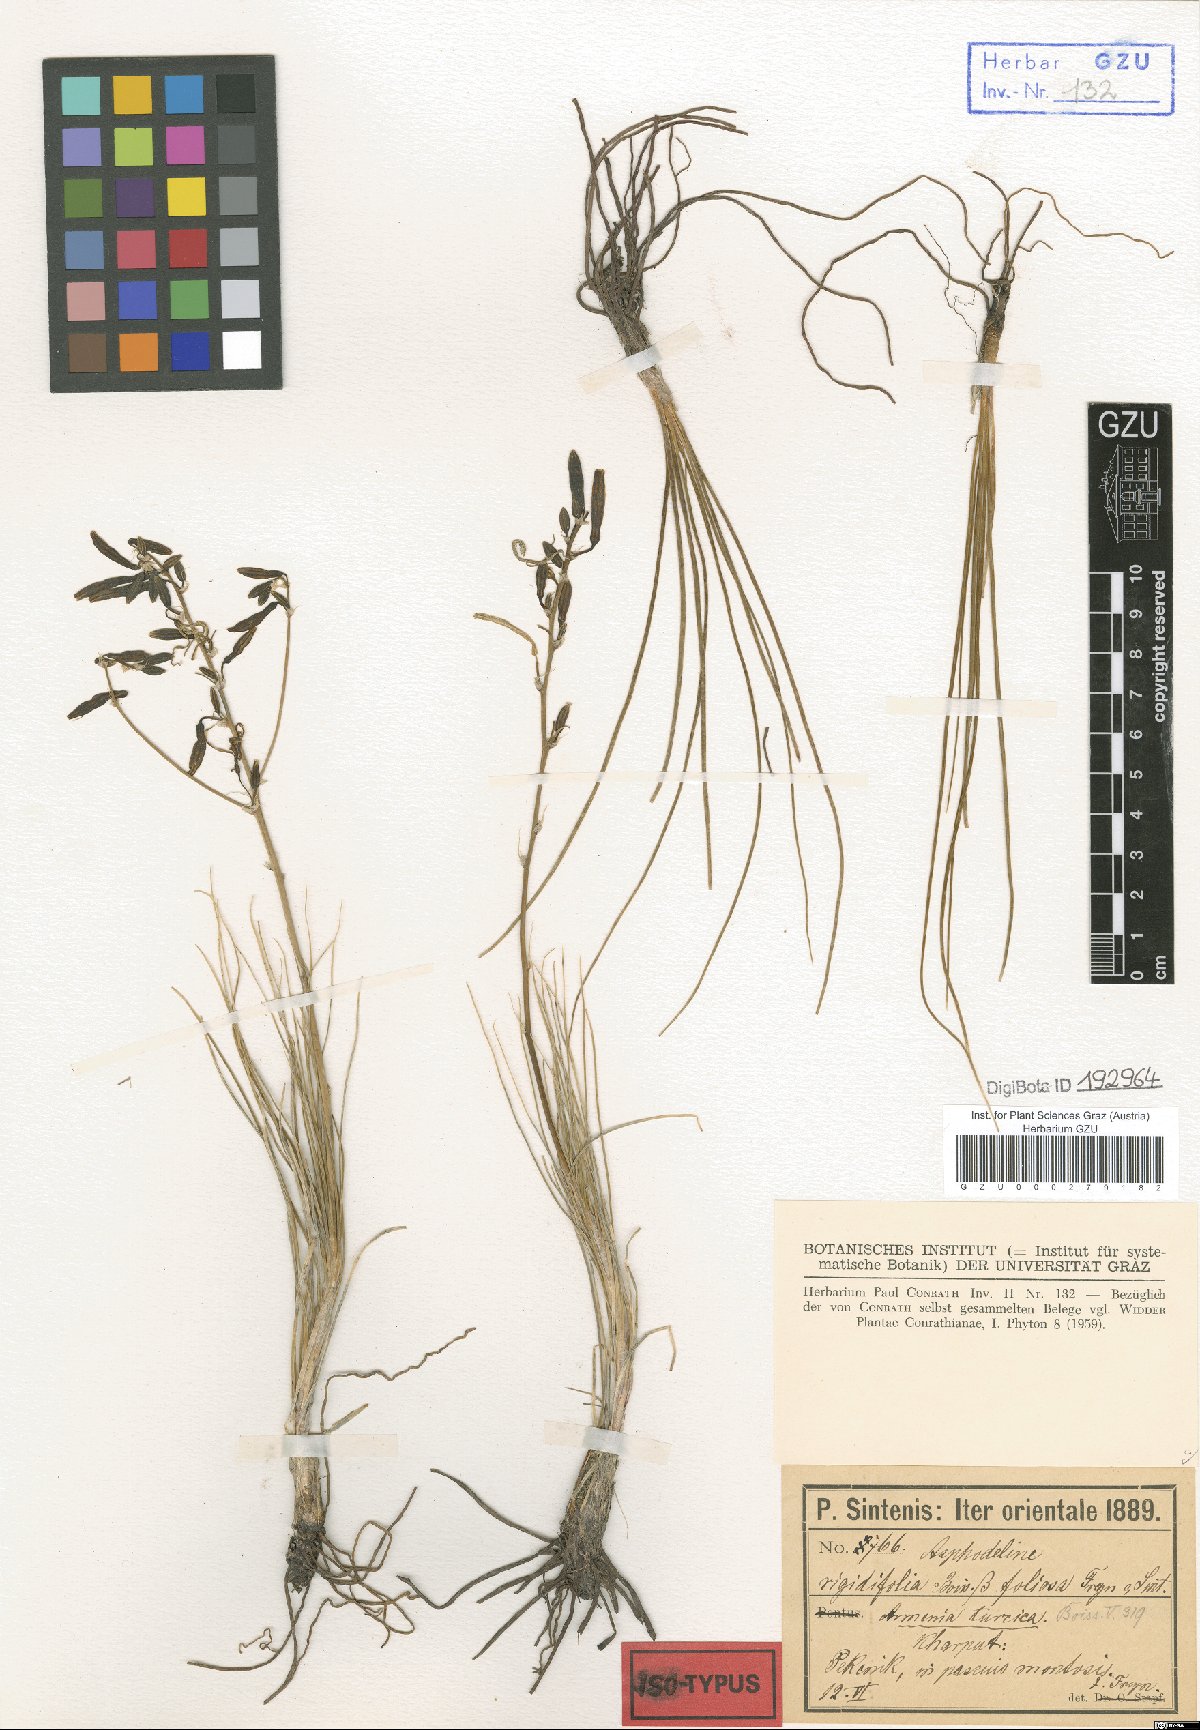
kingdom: Plantae
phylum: Tracheophyta
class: Liliopsida
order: Asparagales
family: Asphodelaceae
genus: Asphodeline
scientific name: Asphodeline tenuior
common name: Thin asphodeline
